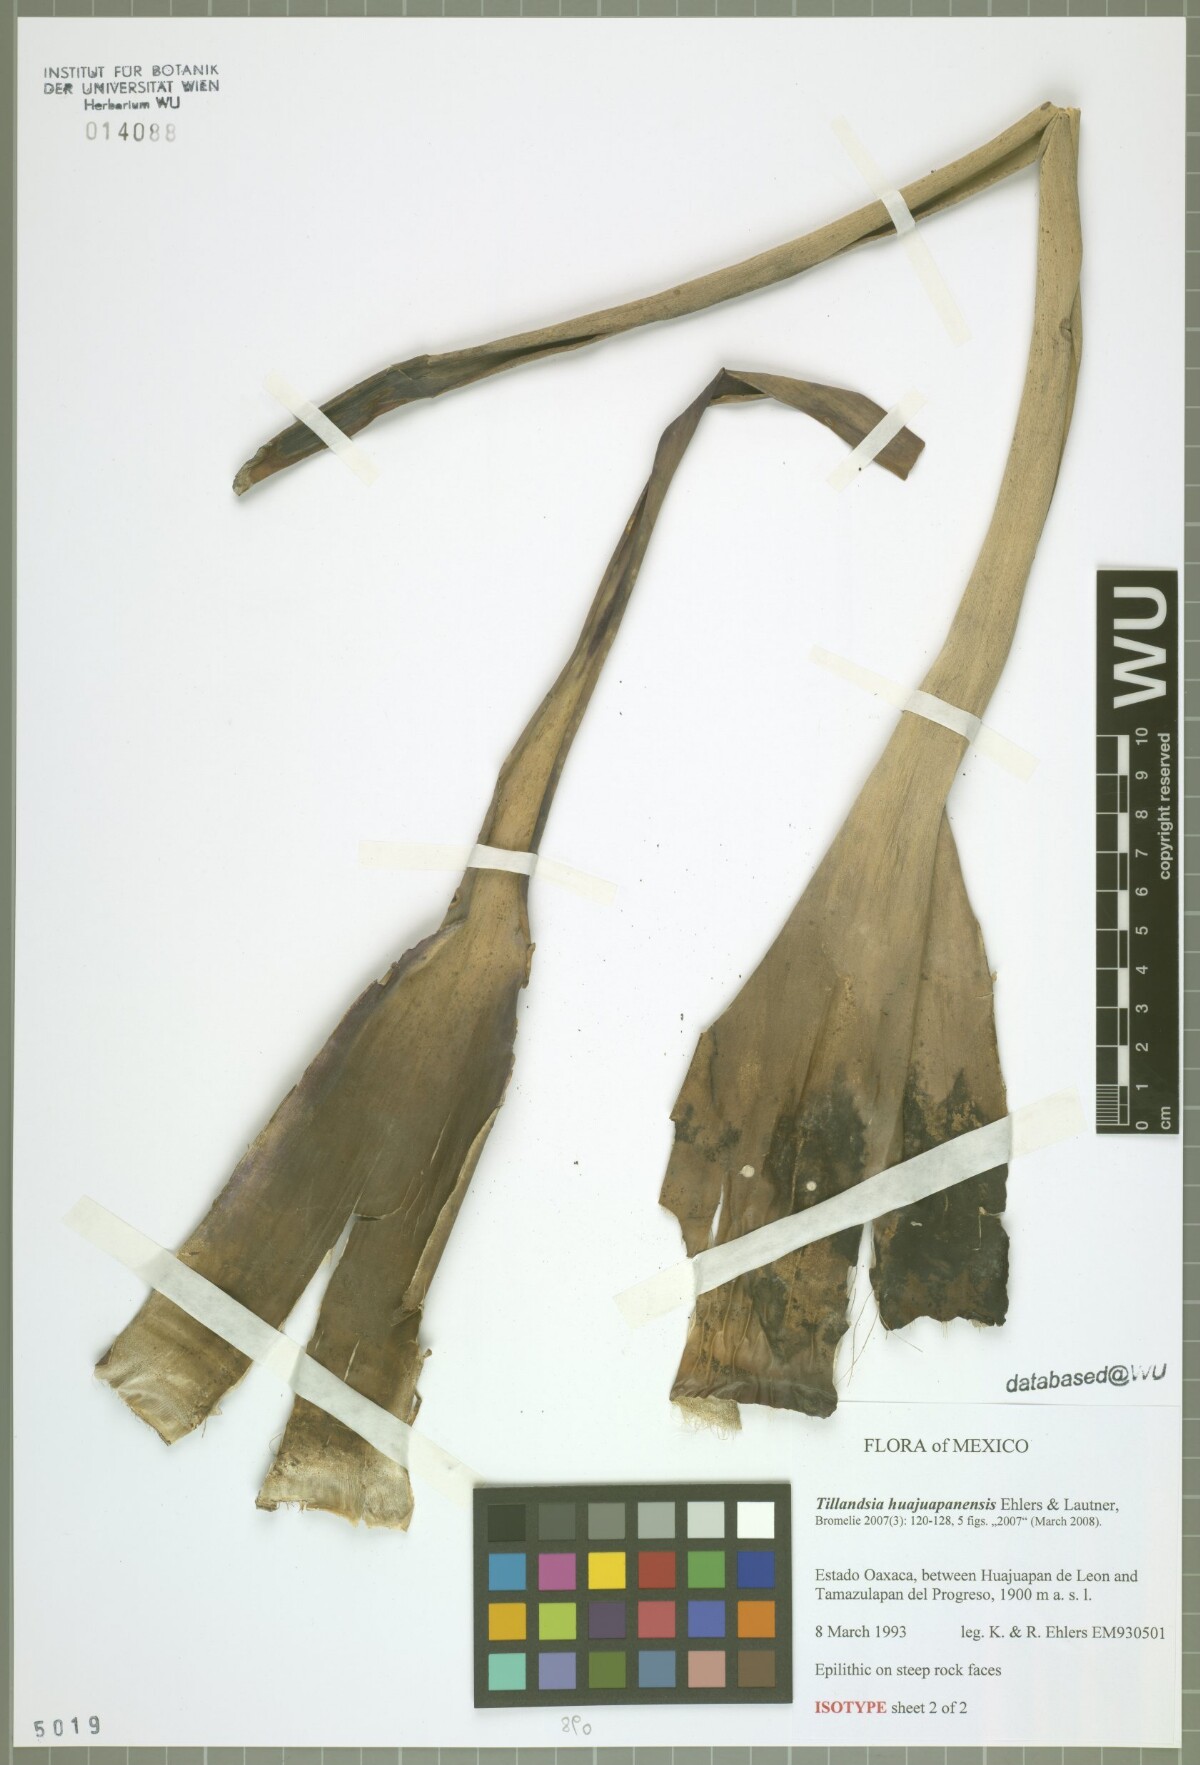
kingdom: Plantae
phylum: Tracheophyta
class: Liliopsida
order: Poales
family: Bromeliaceae
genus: Tillandsia
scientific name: Tillandsia huajuapanensis
